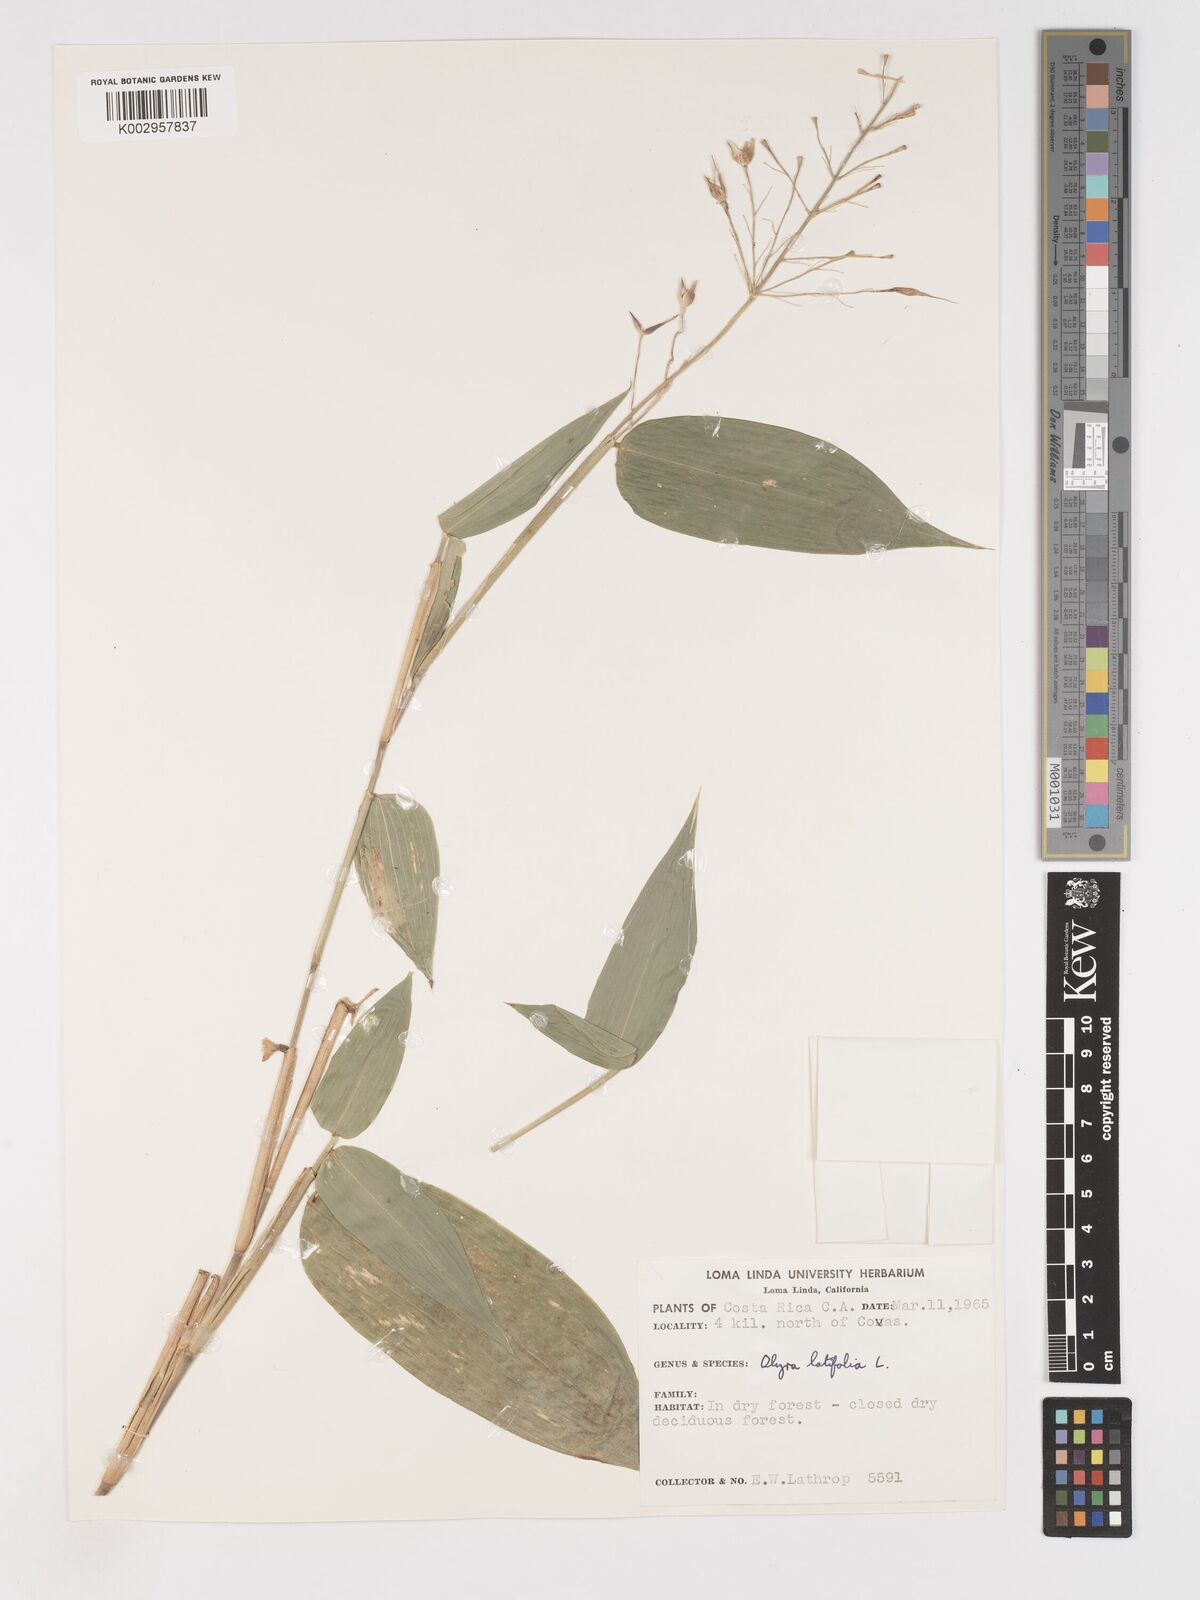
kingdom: Plantae
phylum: Tracheophyta
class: Liliopsida
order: Poales
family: Poaceae
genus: Olyra
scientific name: Olyra latifolia
